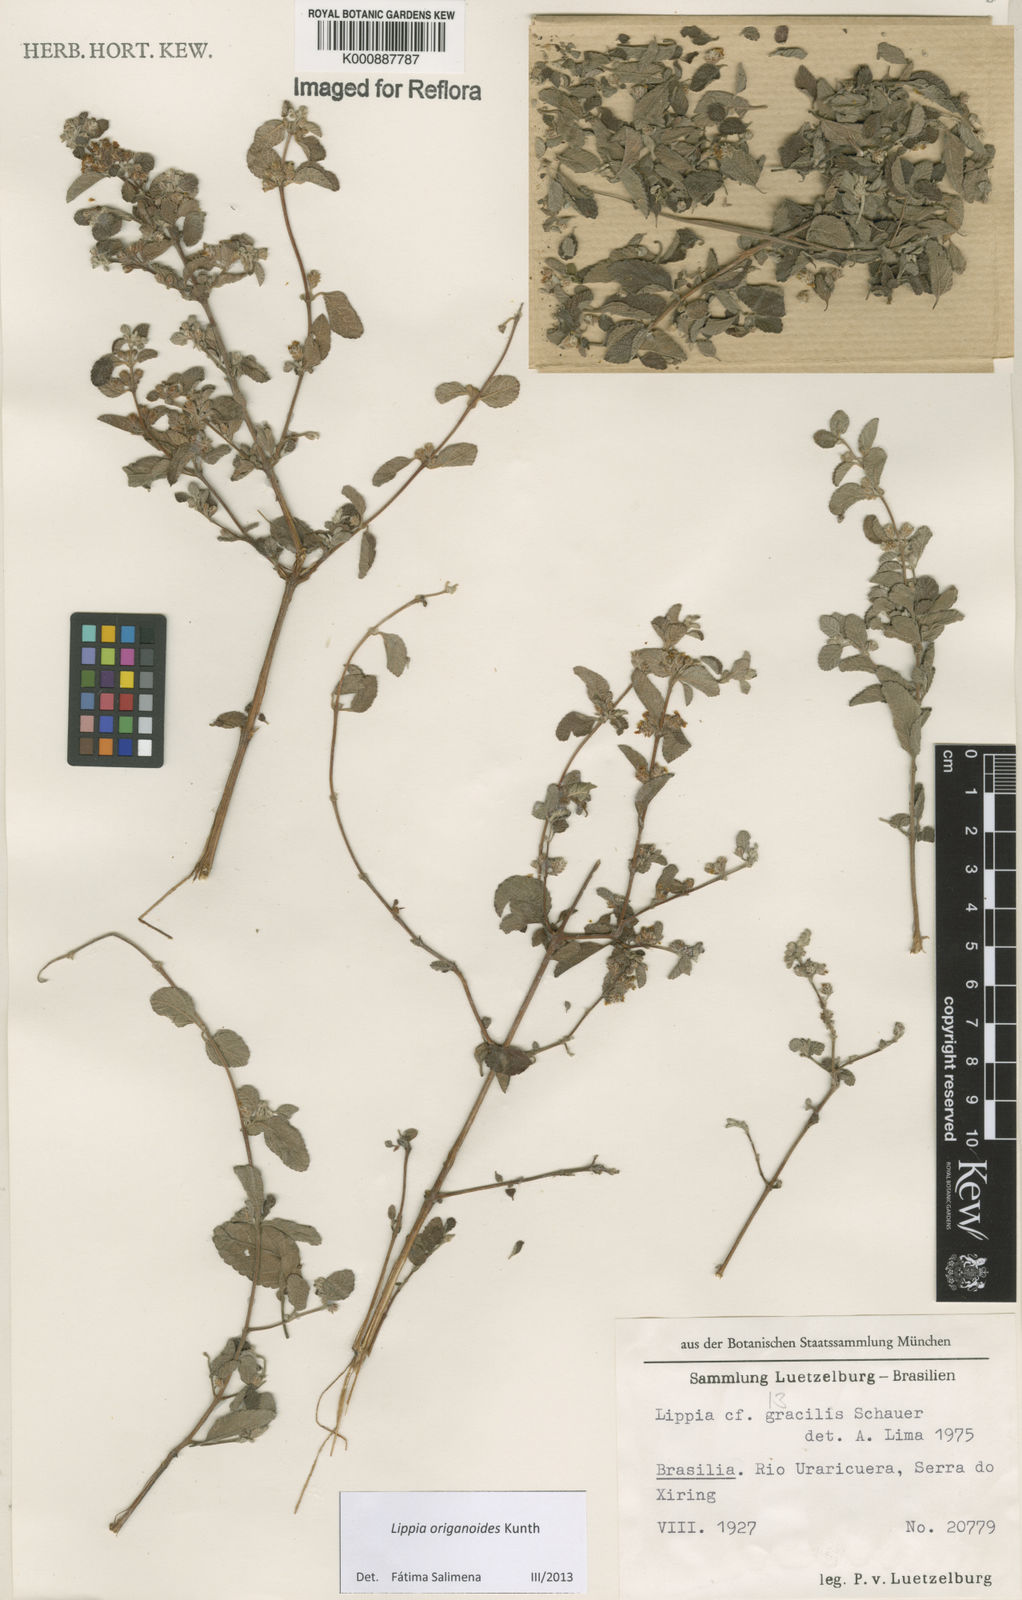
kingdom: Plantae
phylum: Tracheophyta
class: Magnoliopsida
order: Lamiales
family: Verbenaceae
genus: Lippia
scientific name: Lippia origanoides
